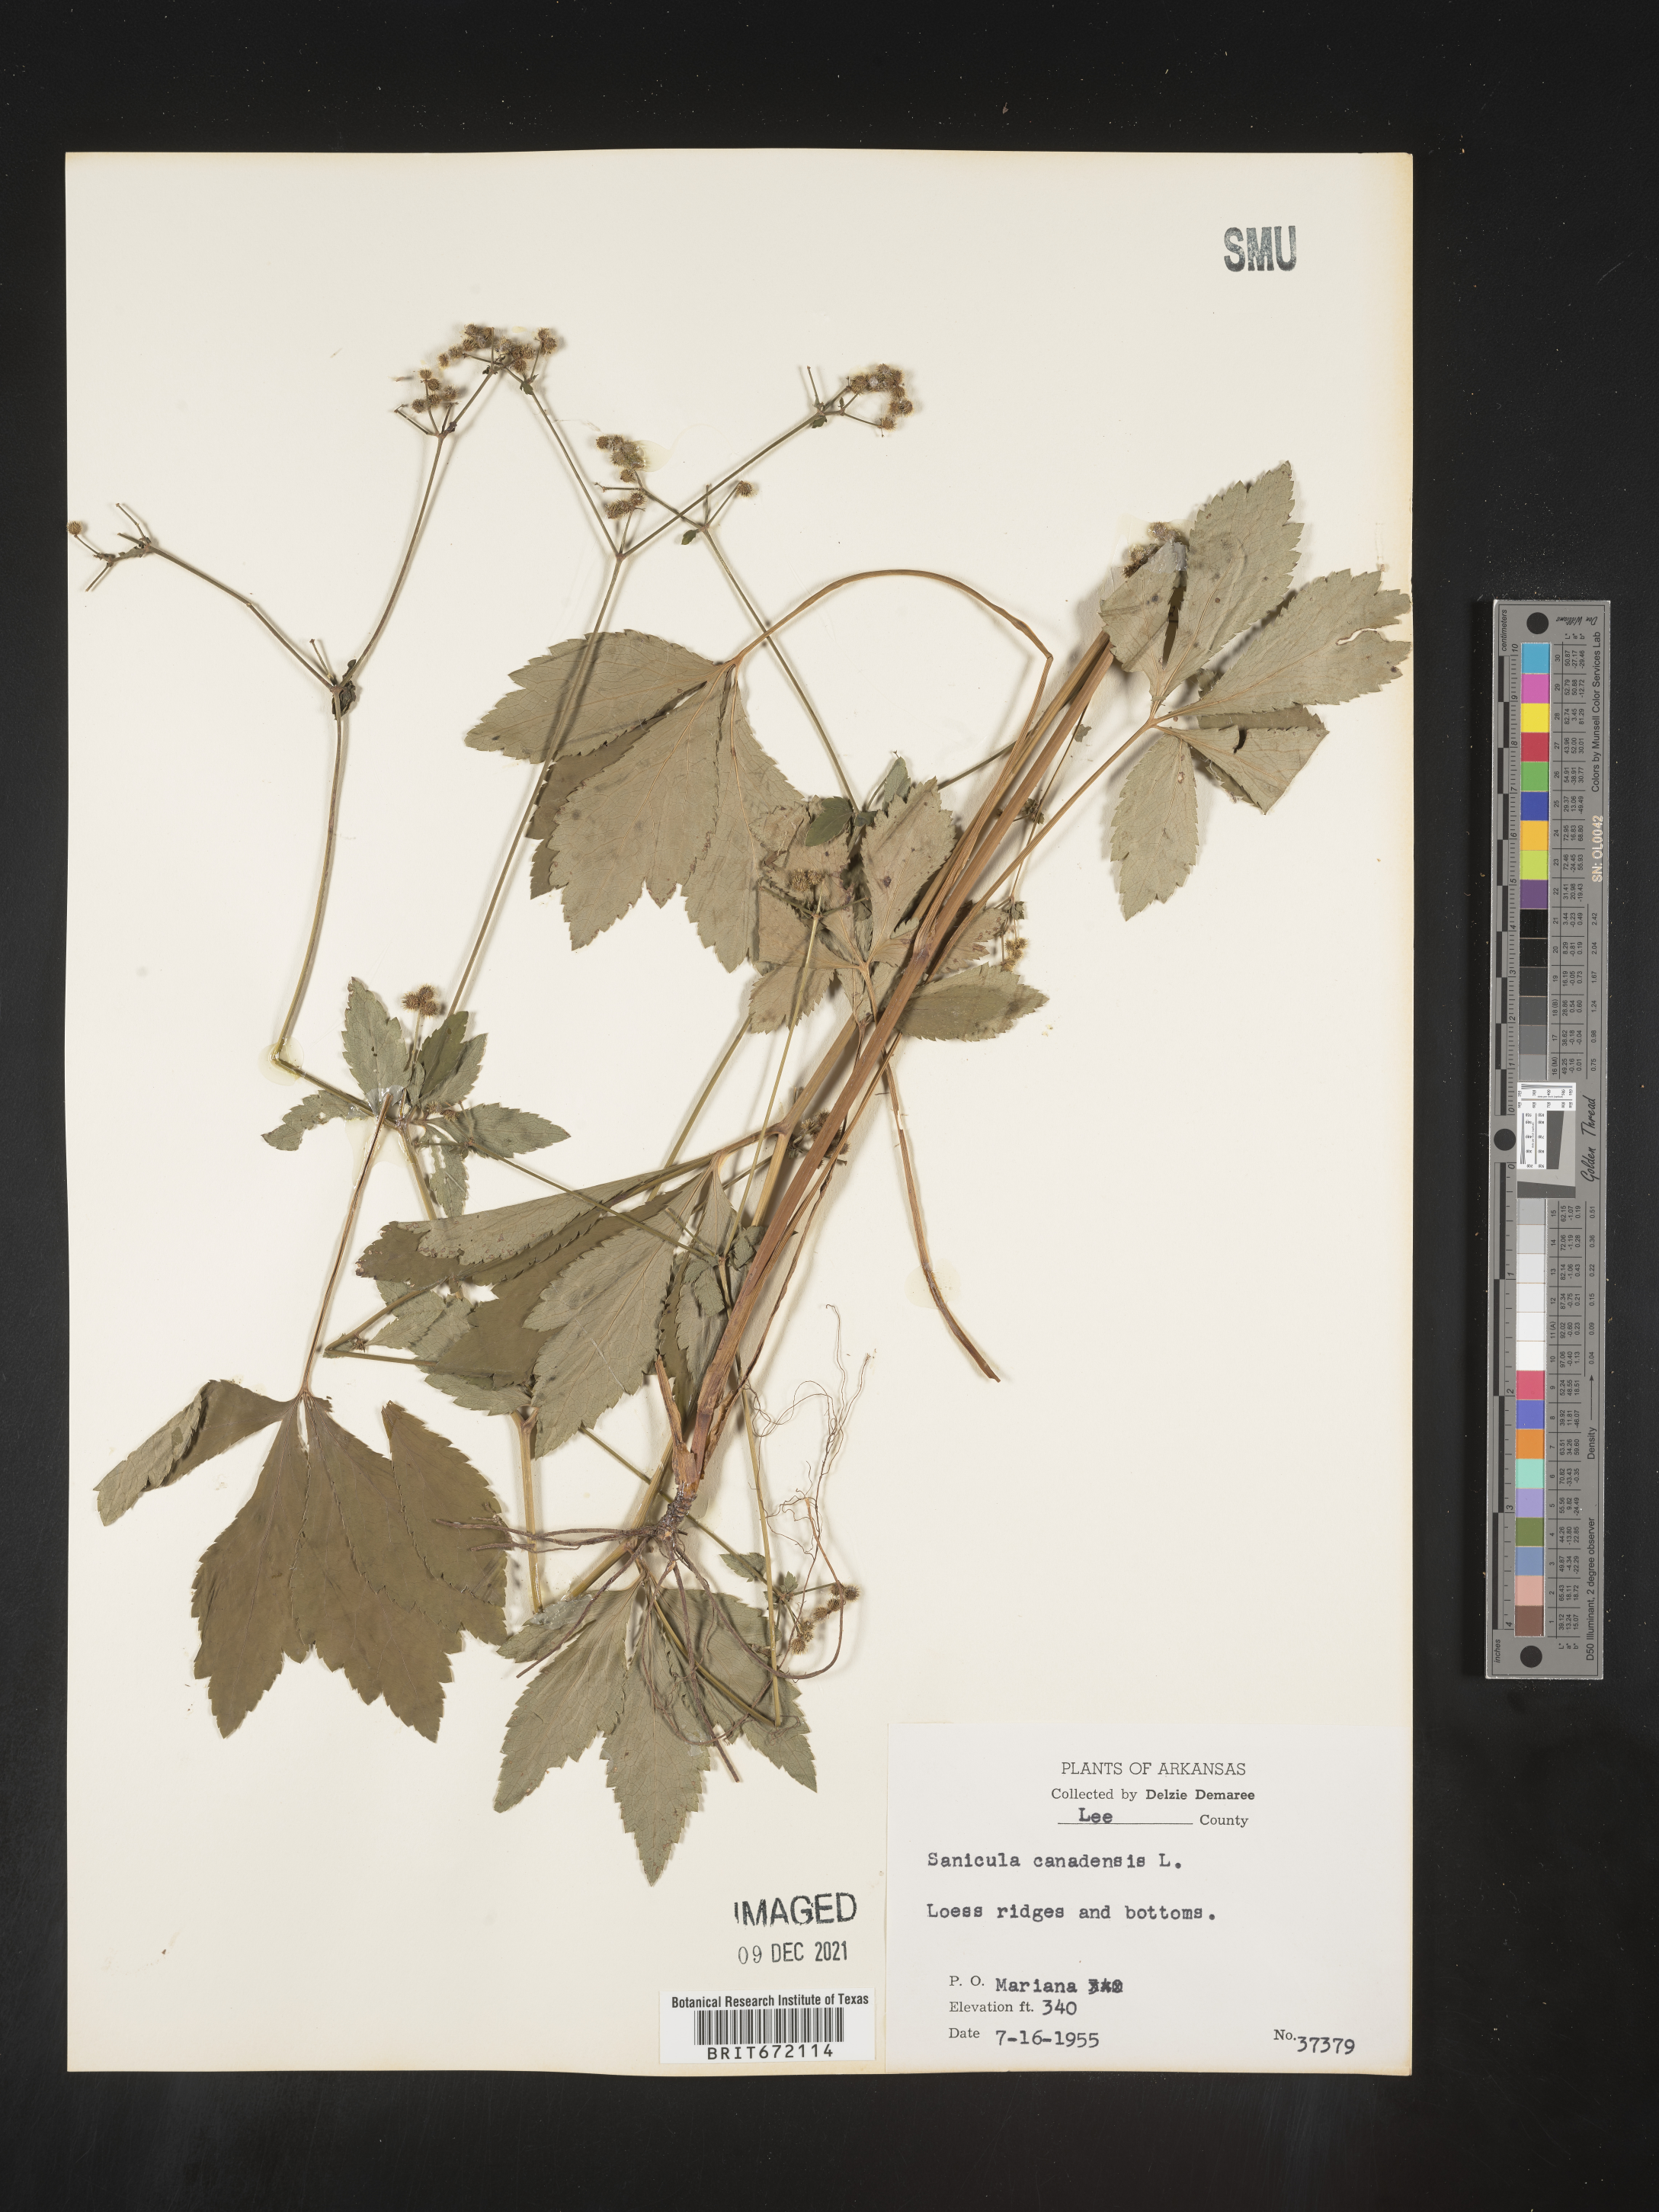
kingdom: Plantae
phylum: Tracheophyta
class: Magnoliopsida
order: Apiales
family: Apiaceae
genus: Sanicula
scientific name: Sanicula canadensis
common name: Canada sanicle
